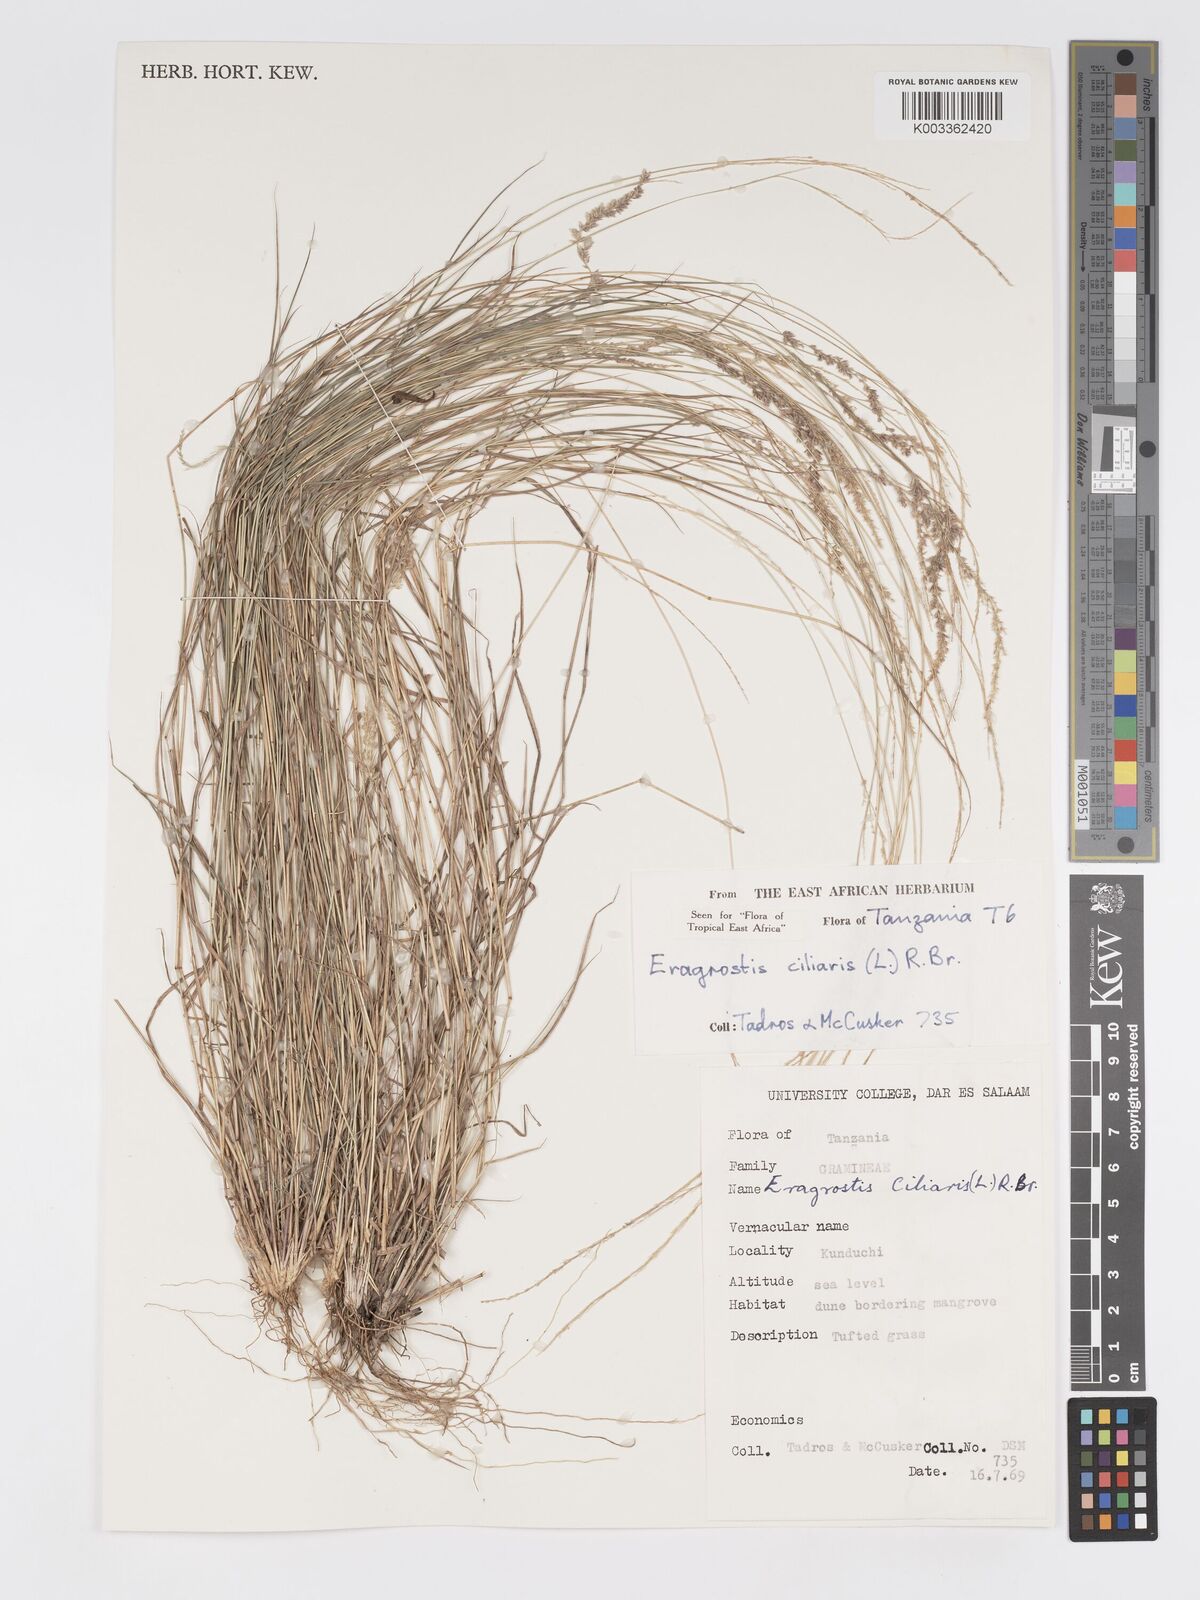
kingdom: Plantae
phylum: Tracheophyta
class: Liliopsida
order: Poales
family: Poaceae
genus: Eragrostis
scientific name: Eragrostis ciliaris
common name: Gophertail lovegrass
